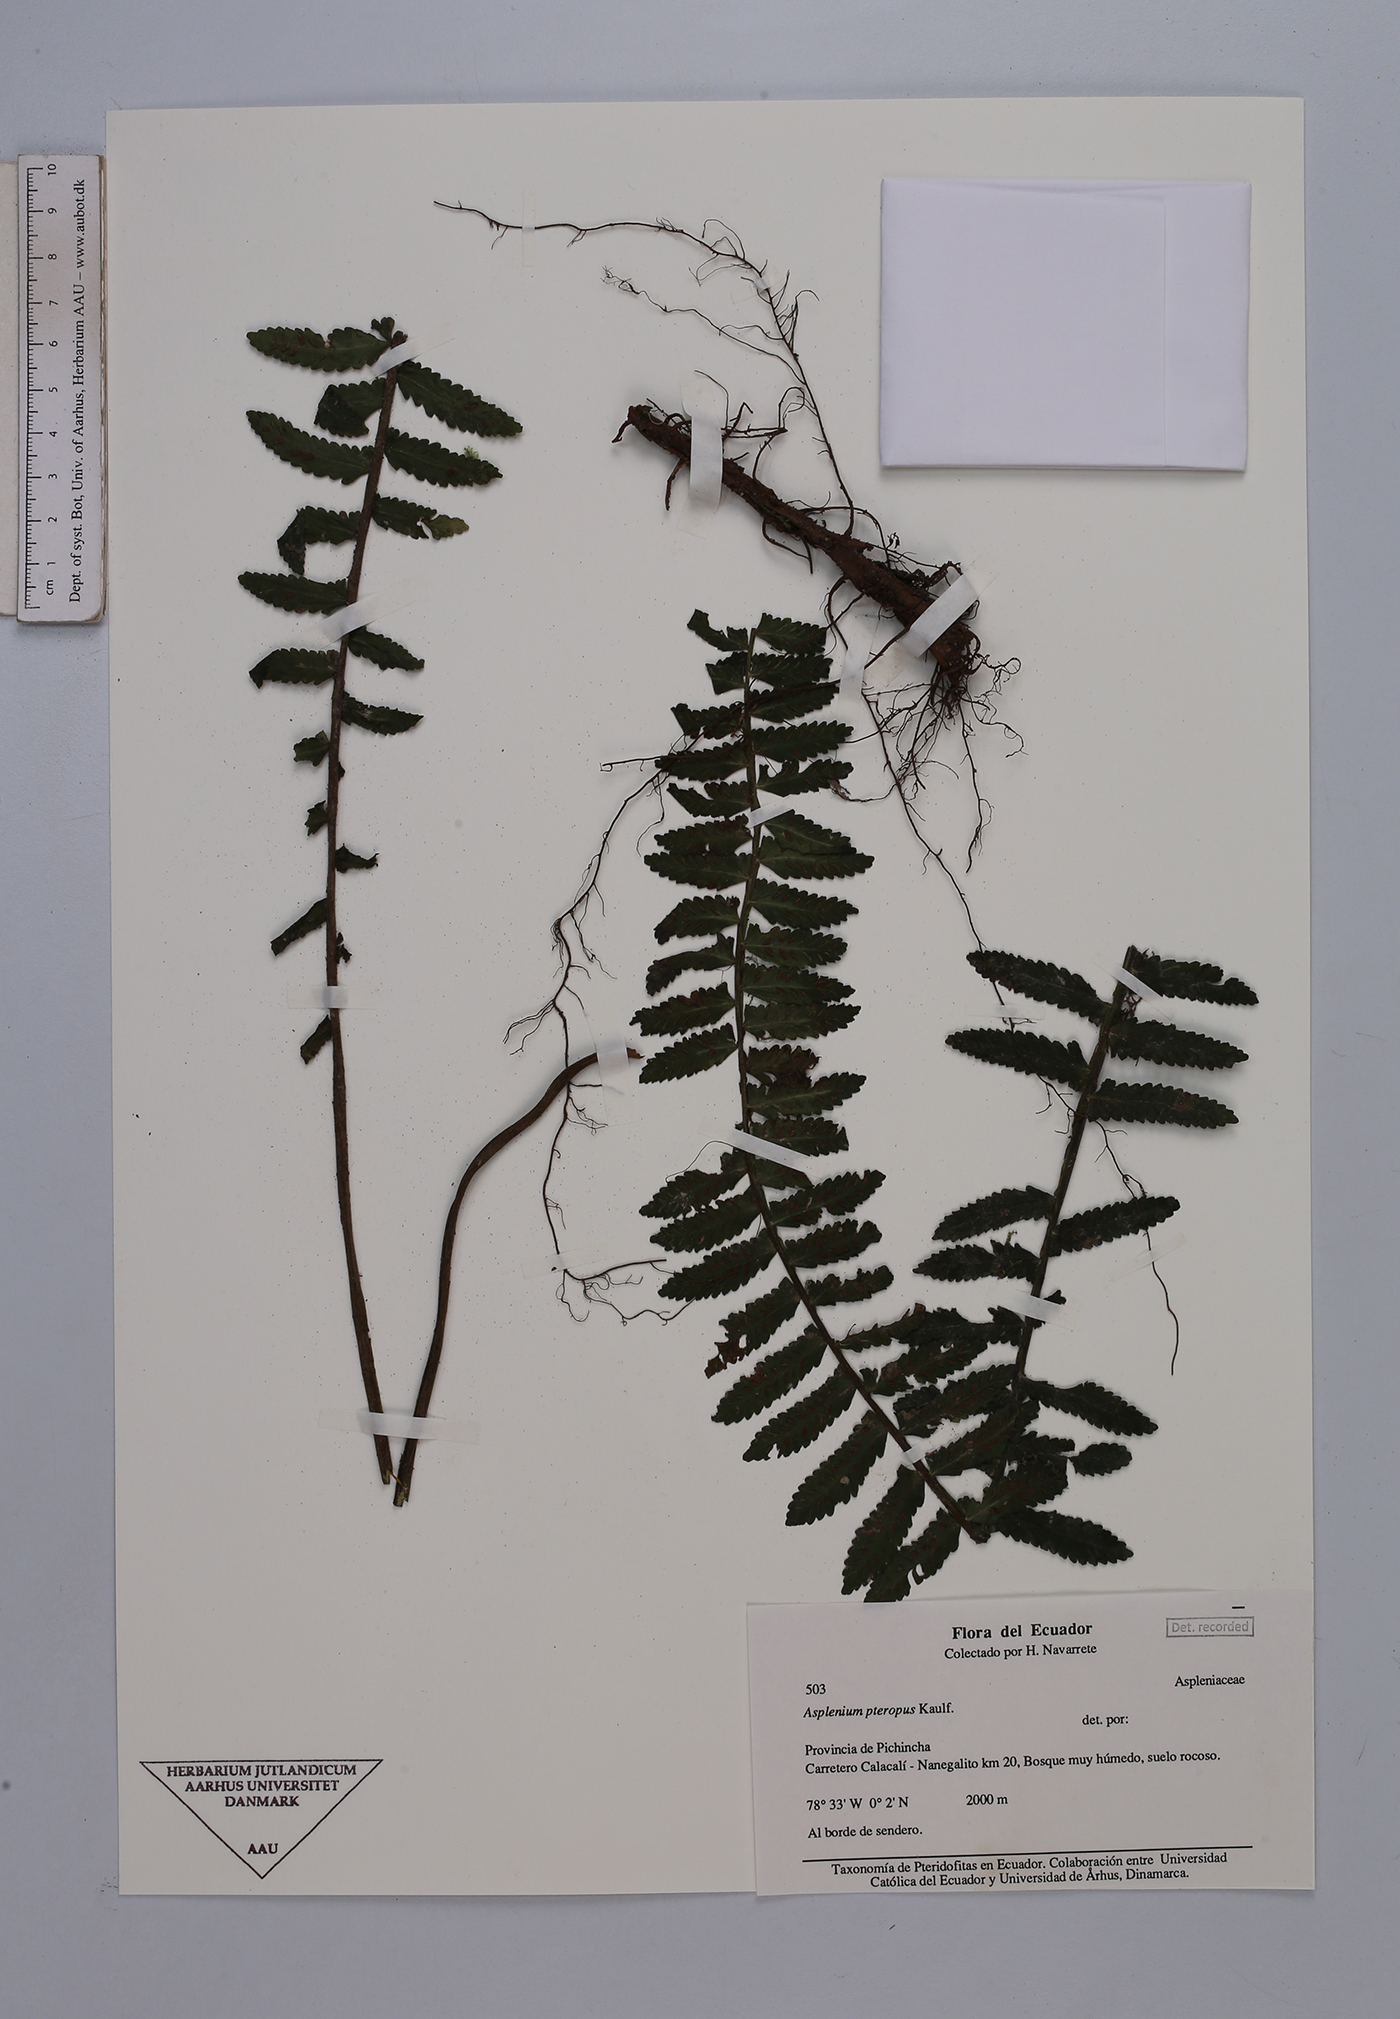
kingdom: Plantae
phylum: Tracheophyta
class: Polypodiopsida
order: Polypodiales
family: Aspleniaceae
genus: Asplenium
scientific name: Asplenium pteropus
